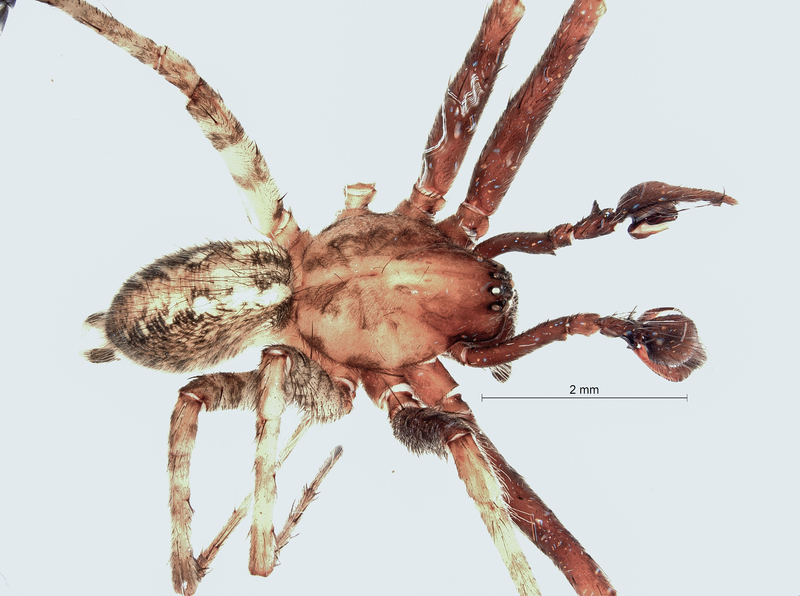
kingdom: Animalia
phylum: Arthropoda
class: Arachnida
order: Araneae
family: Agelenidae
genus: Tegenaria
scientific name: Tegenaria ferruginea
